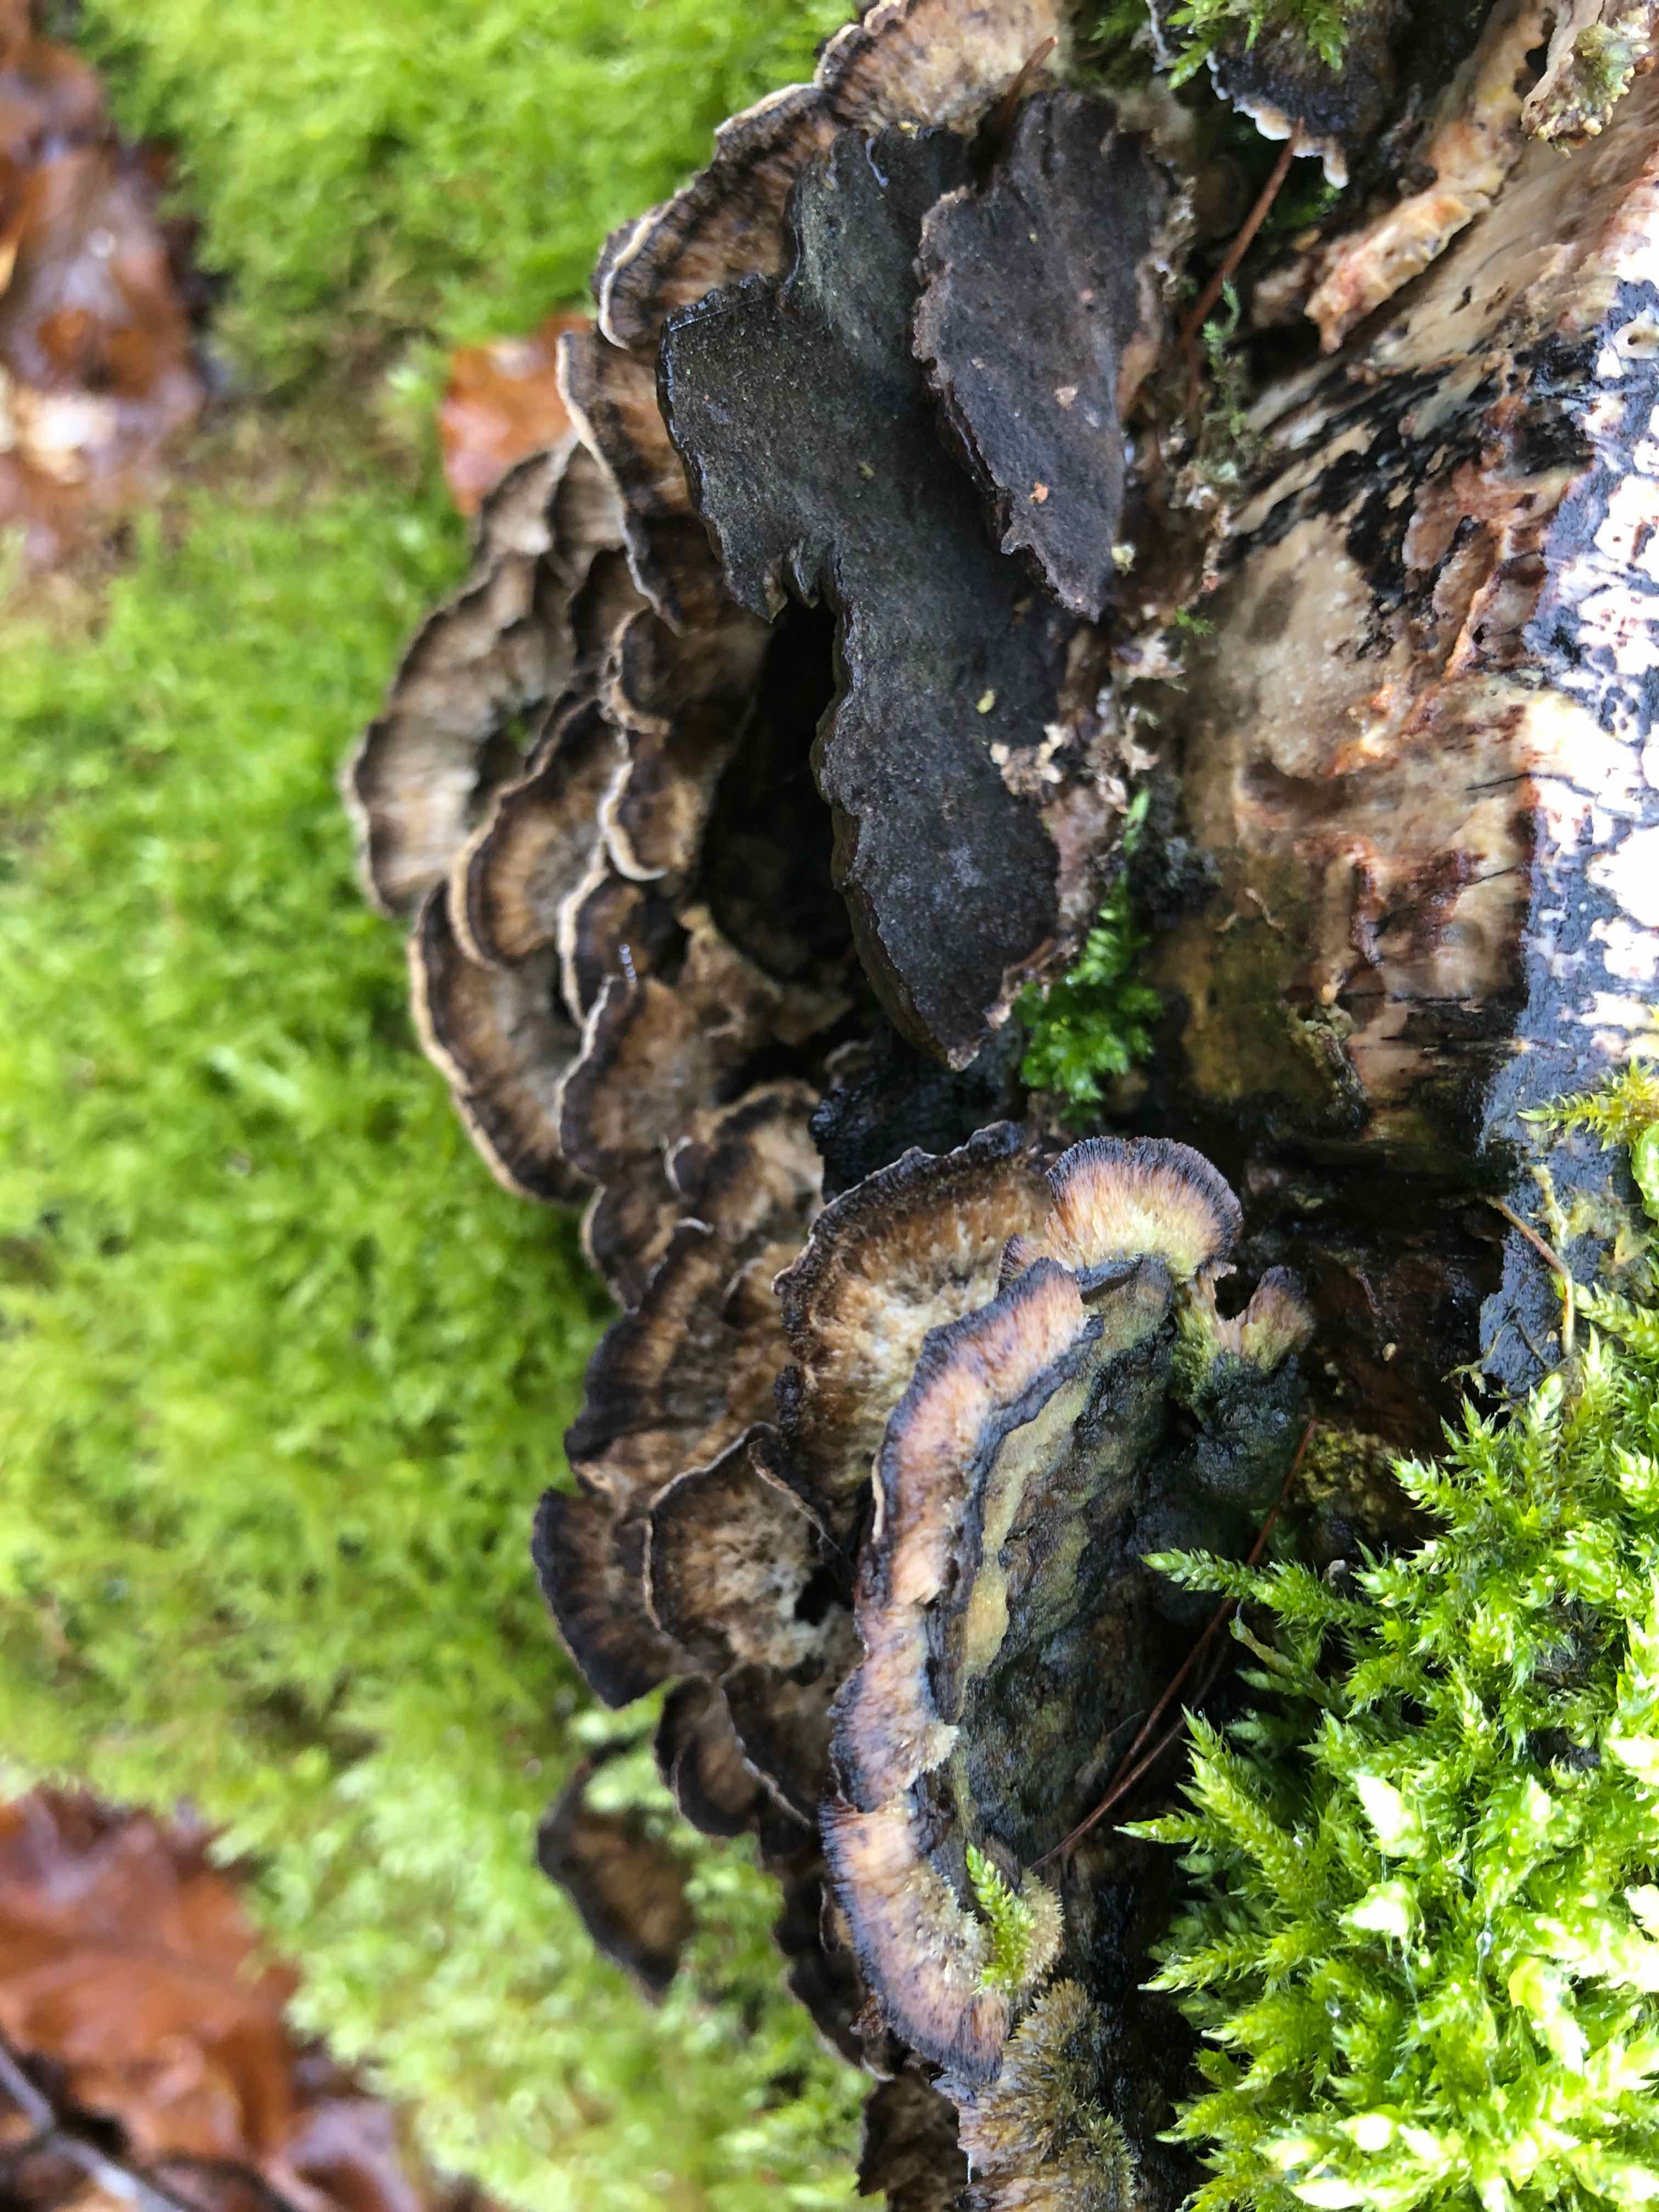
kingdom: Fungi
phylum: Basidiomycota
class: Agaricomycetes
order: Polyporales
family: Phanerochaetaceae
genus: Bjerkandera
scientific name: Bjerkandera adusta
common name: sveden sodporesvamp
